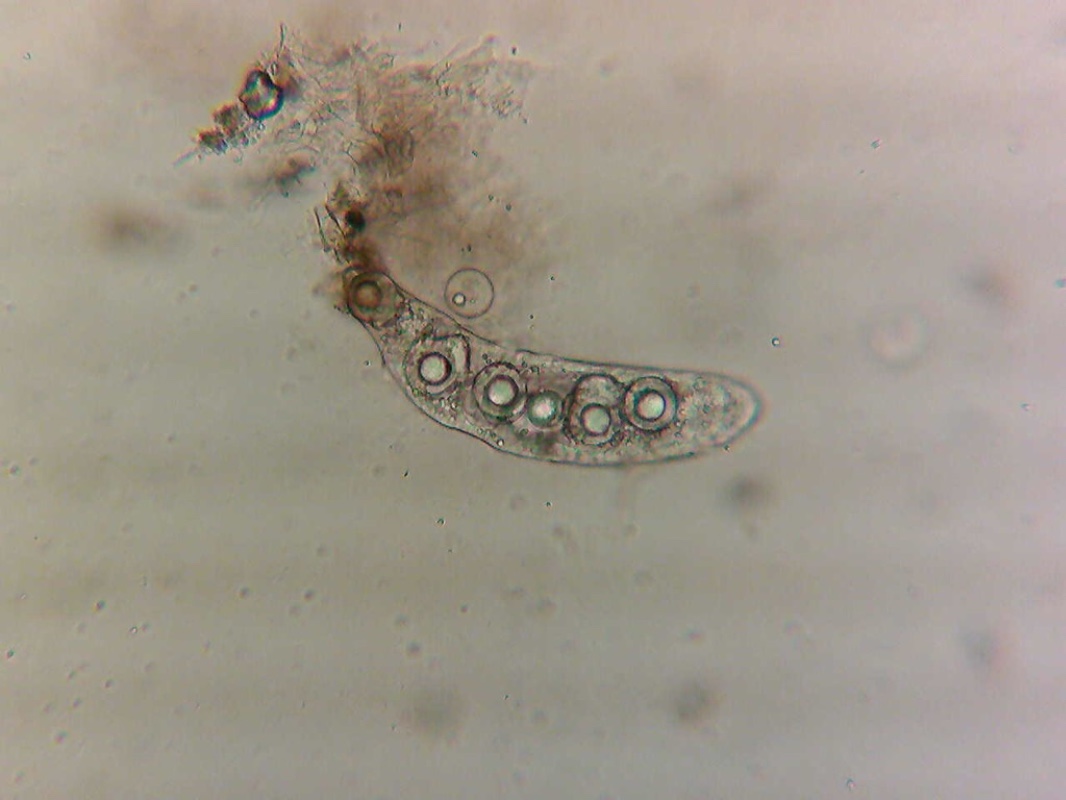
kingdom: Fungi
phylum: Ascomycota
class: Pezizomycetes
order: Pezizales
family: Discinaceae
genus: Hydnotrya
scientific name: Hydnotrya tulasnei
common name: almindelig foldtrøffel
